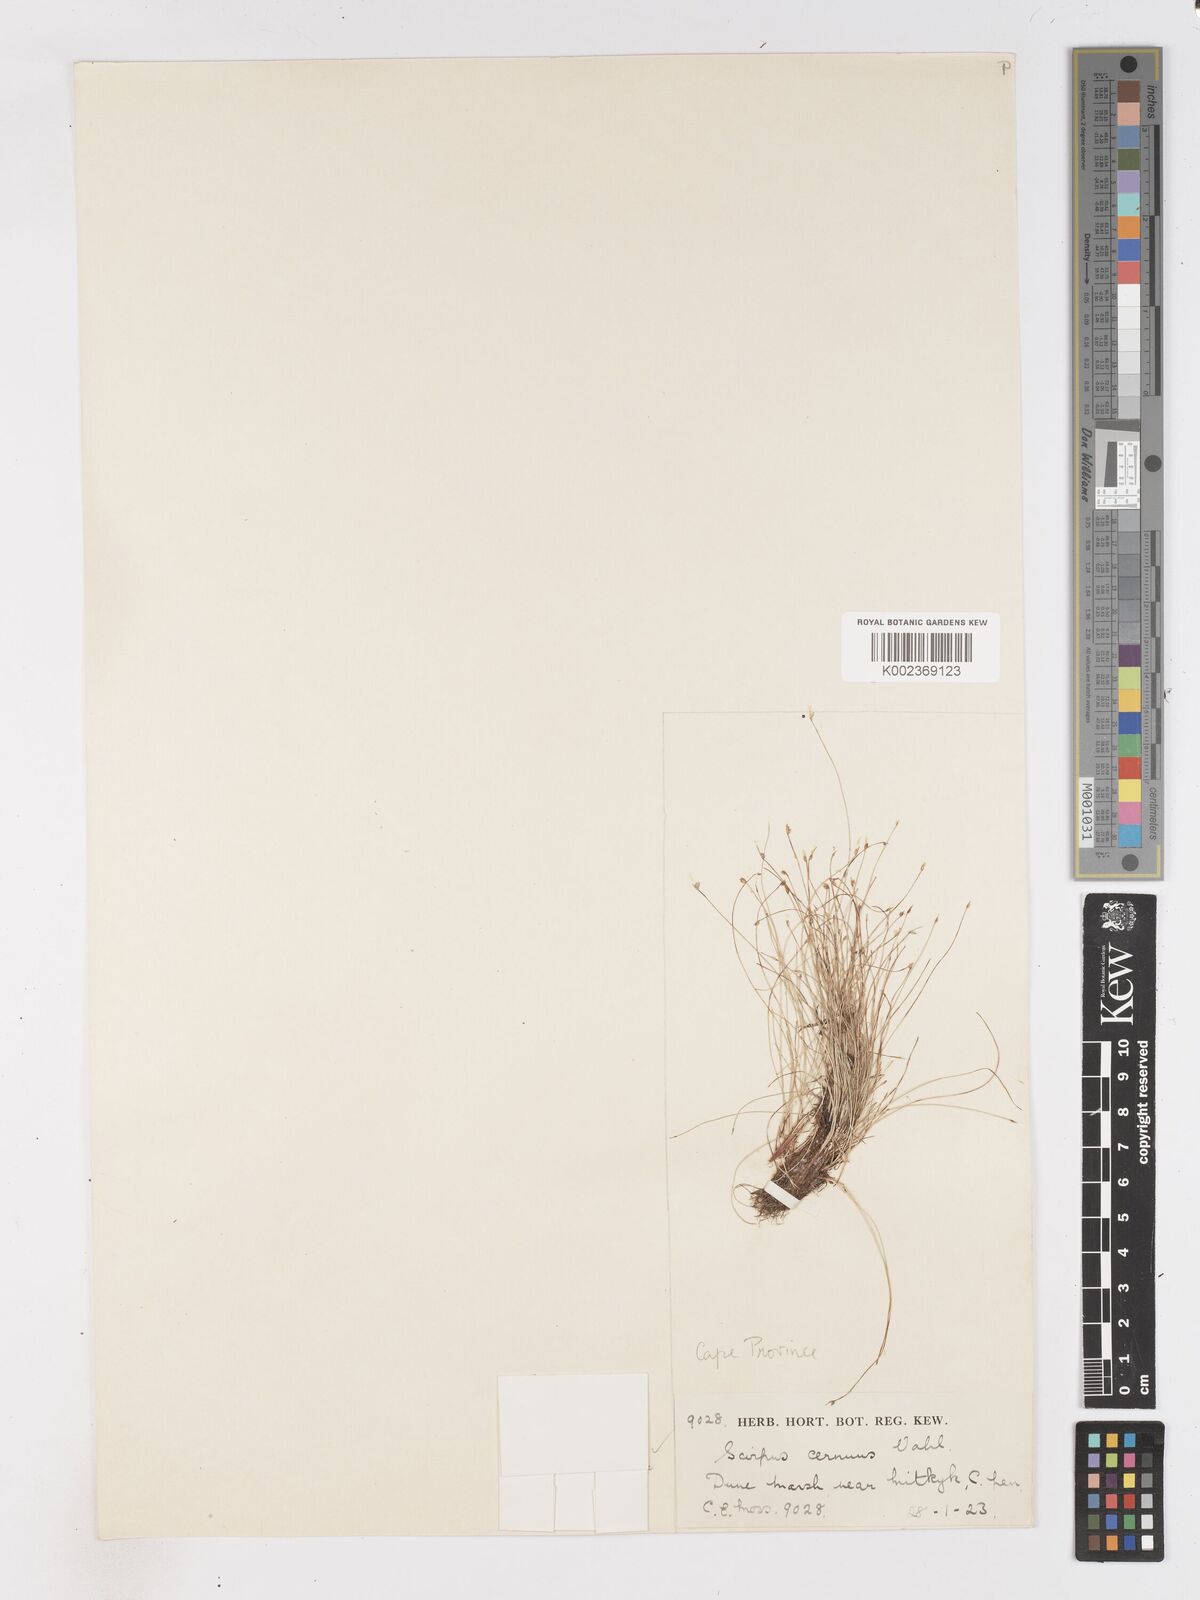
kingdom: Plantae
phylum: Tracheophyta
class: Liliopsida
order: Poales
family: Cyperaceae
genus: Isolepis
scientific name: Isolepis cernua
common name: Slender club-rush
